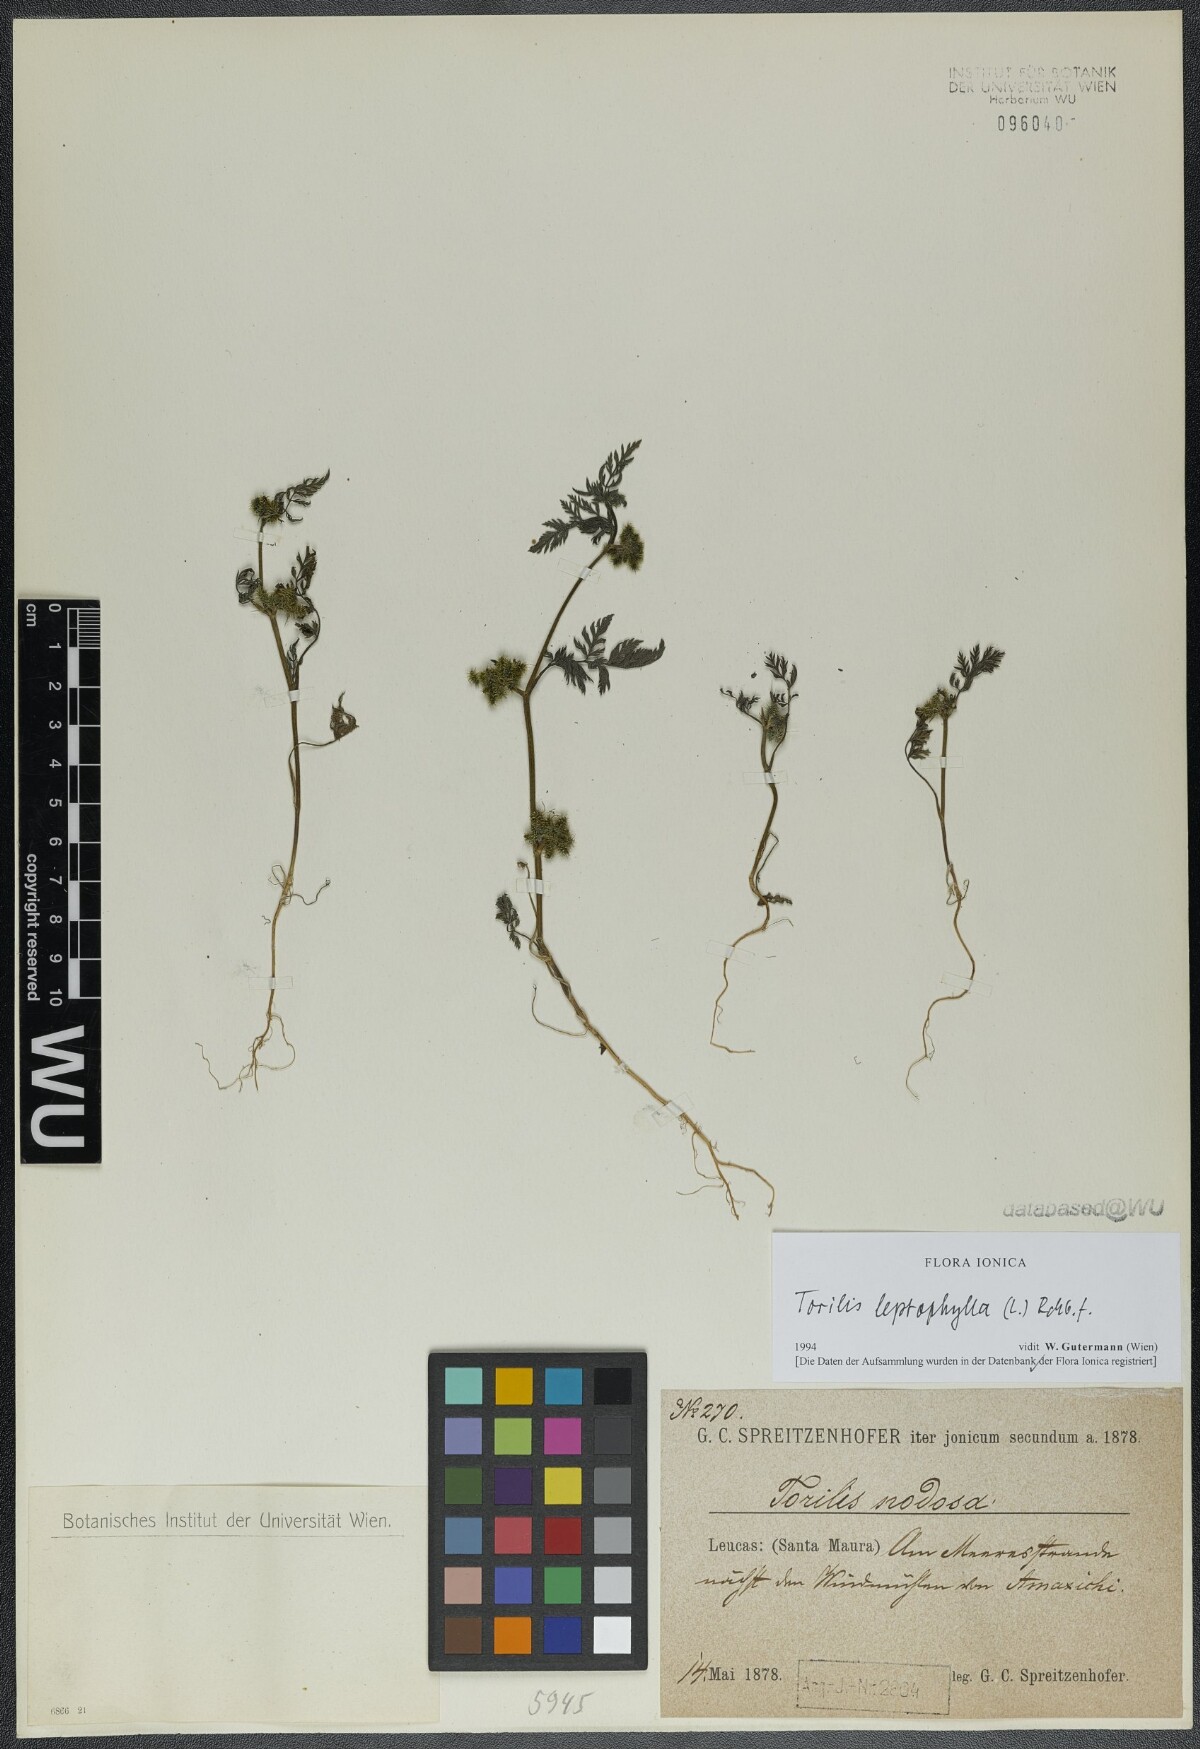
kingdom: Plantae
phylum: Tracheophyta
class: Magnoliopsida
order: Apiales
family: Apiaceae
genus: Torilis
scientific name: Torilis leptophylla
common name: Bristlefruit hedgeparsley
